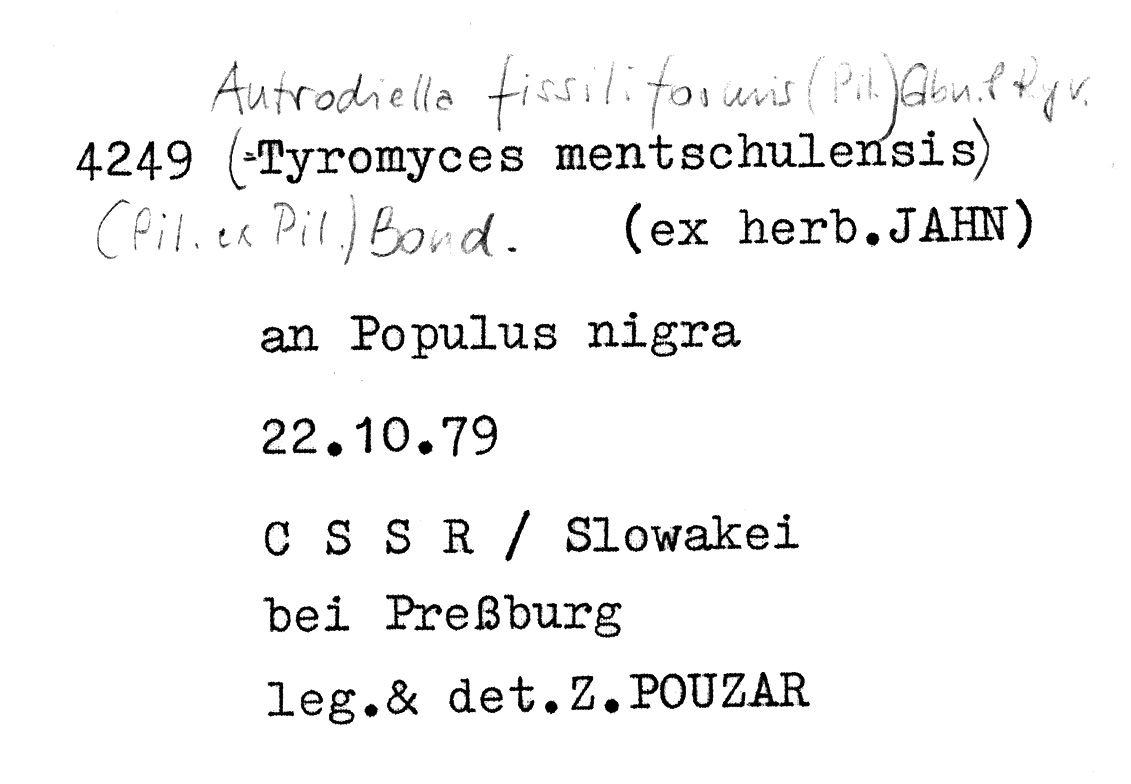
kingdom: Fungi
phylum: Basidiomycota
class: Agaricomycetes
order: Polyporales
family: Steccherinaceae
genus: Antrodiella
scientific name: Antrodiella fissiliformis
